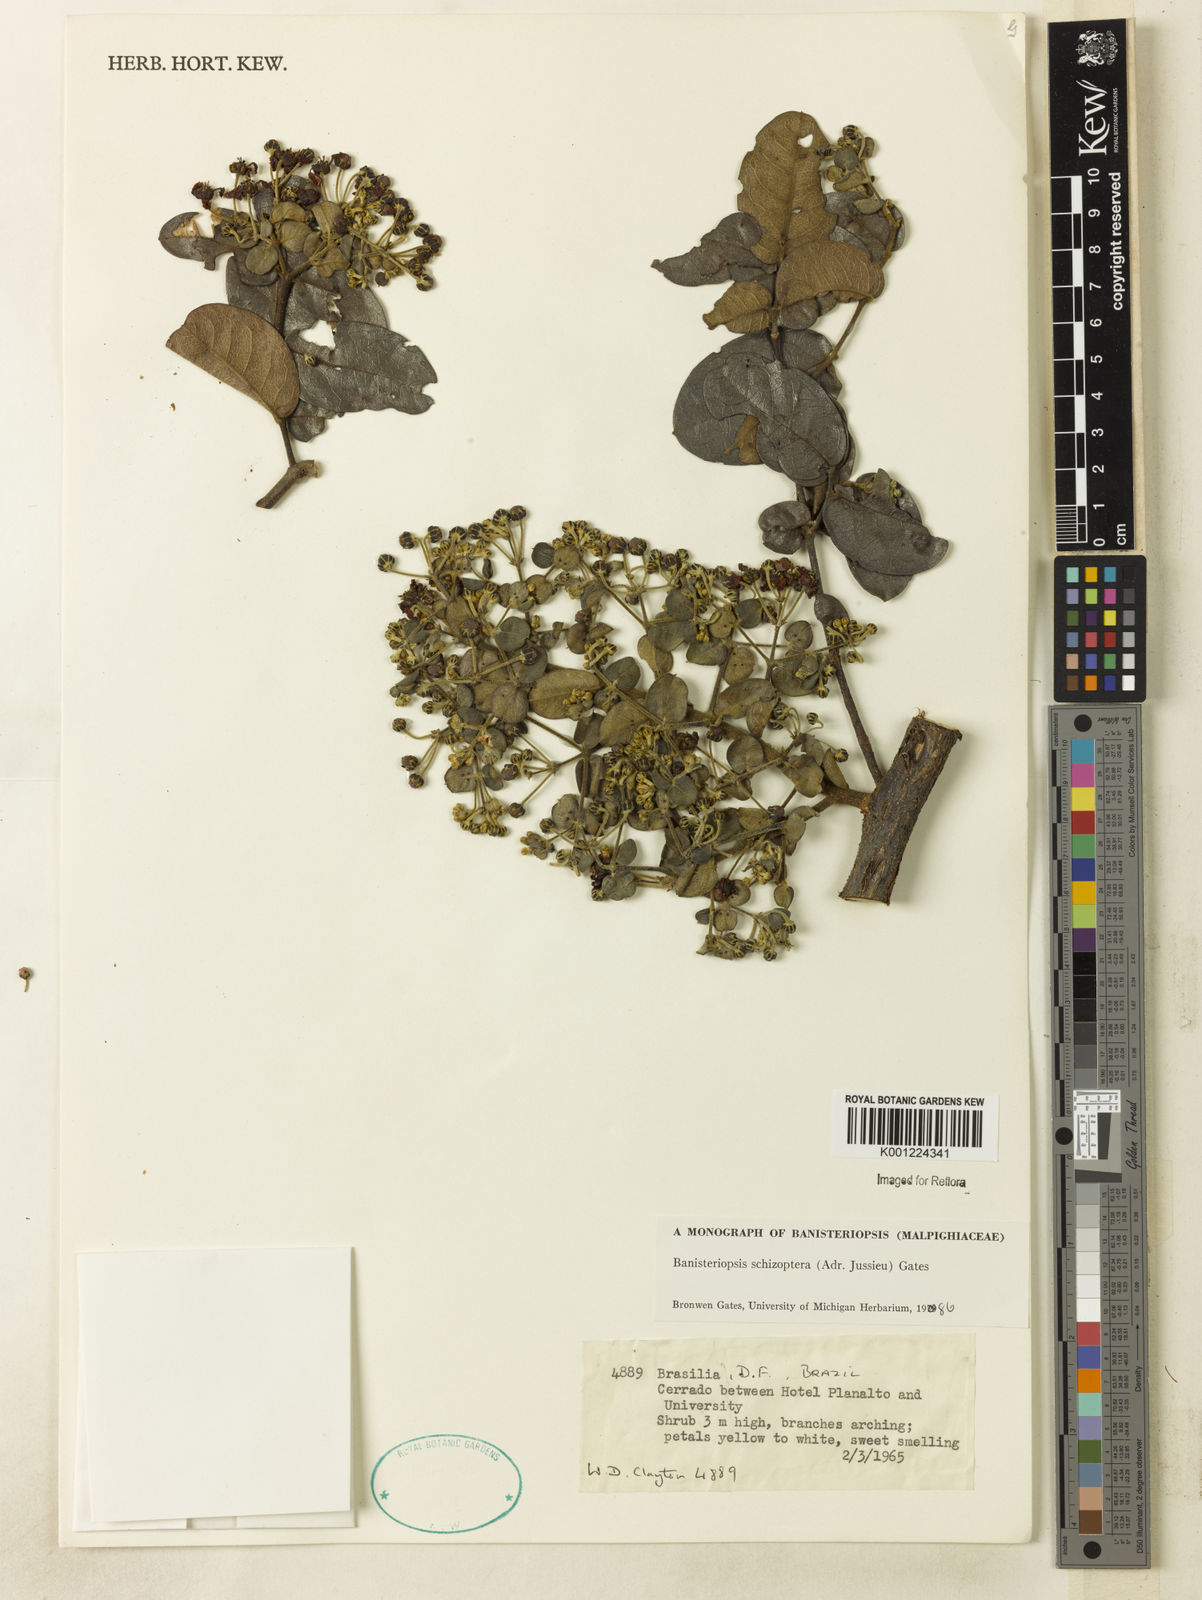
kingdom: Plantae
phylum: Tracheophyta
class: Magnoliopsida
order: Malpighiales
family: Malpighiaceae
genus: Banisteriopsis
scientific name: Banisteriopsis schizoptera
